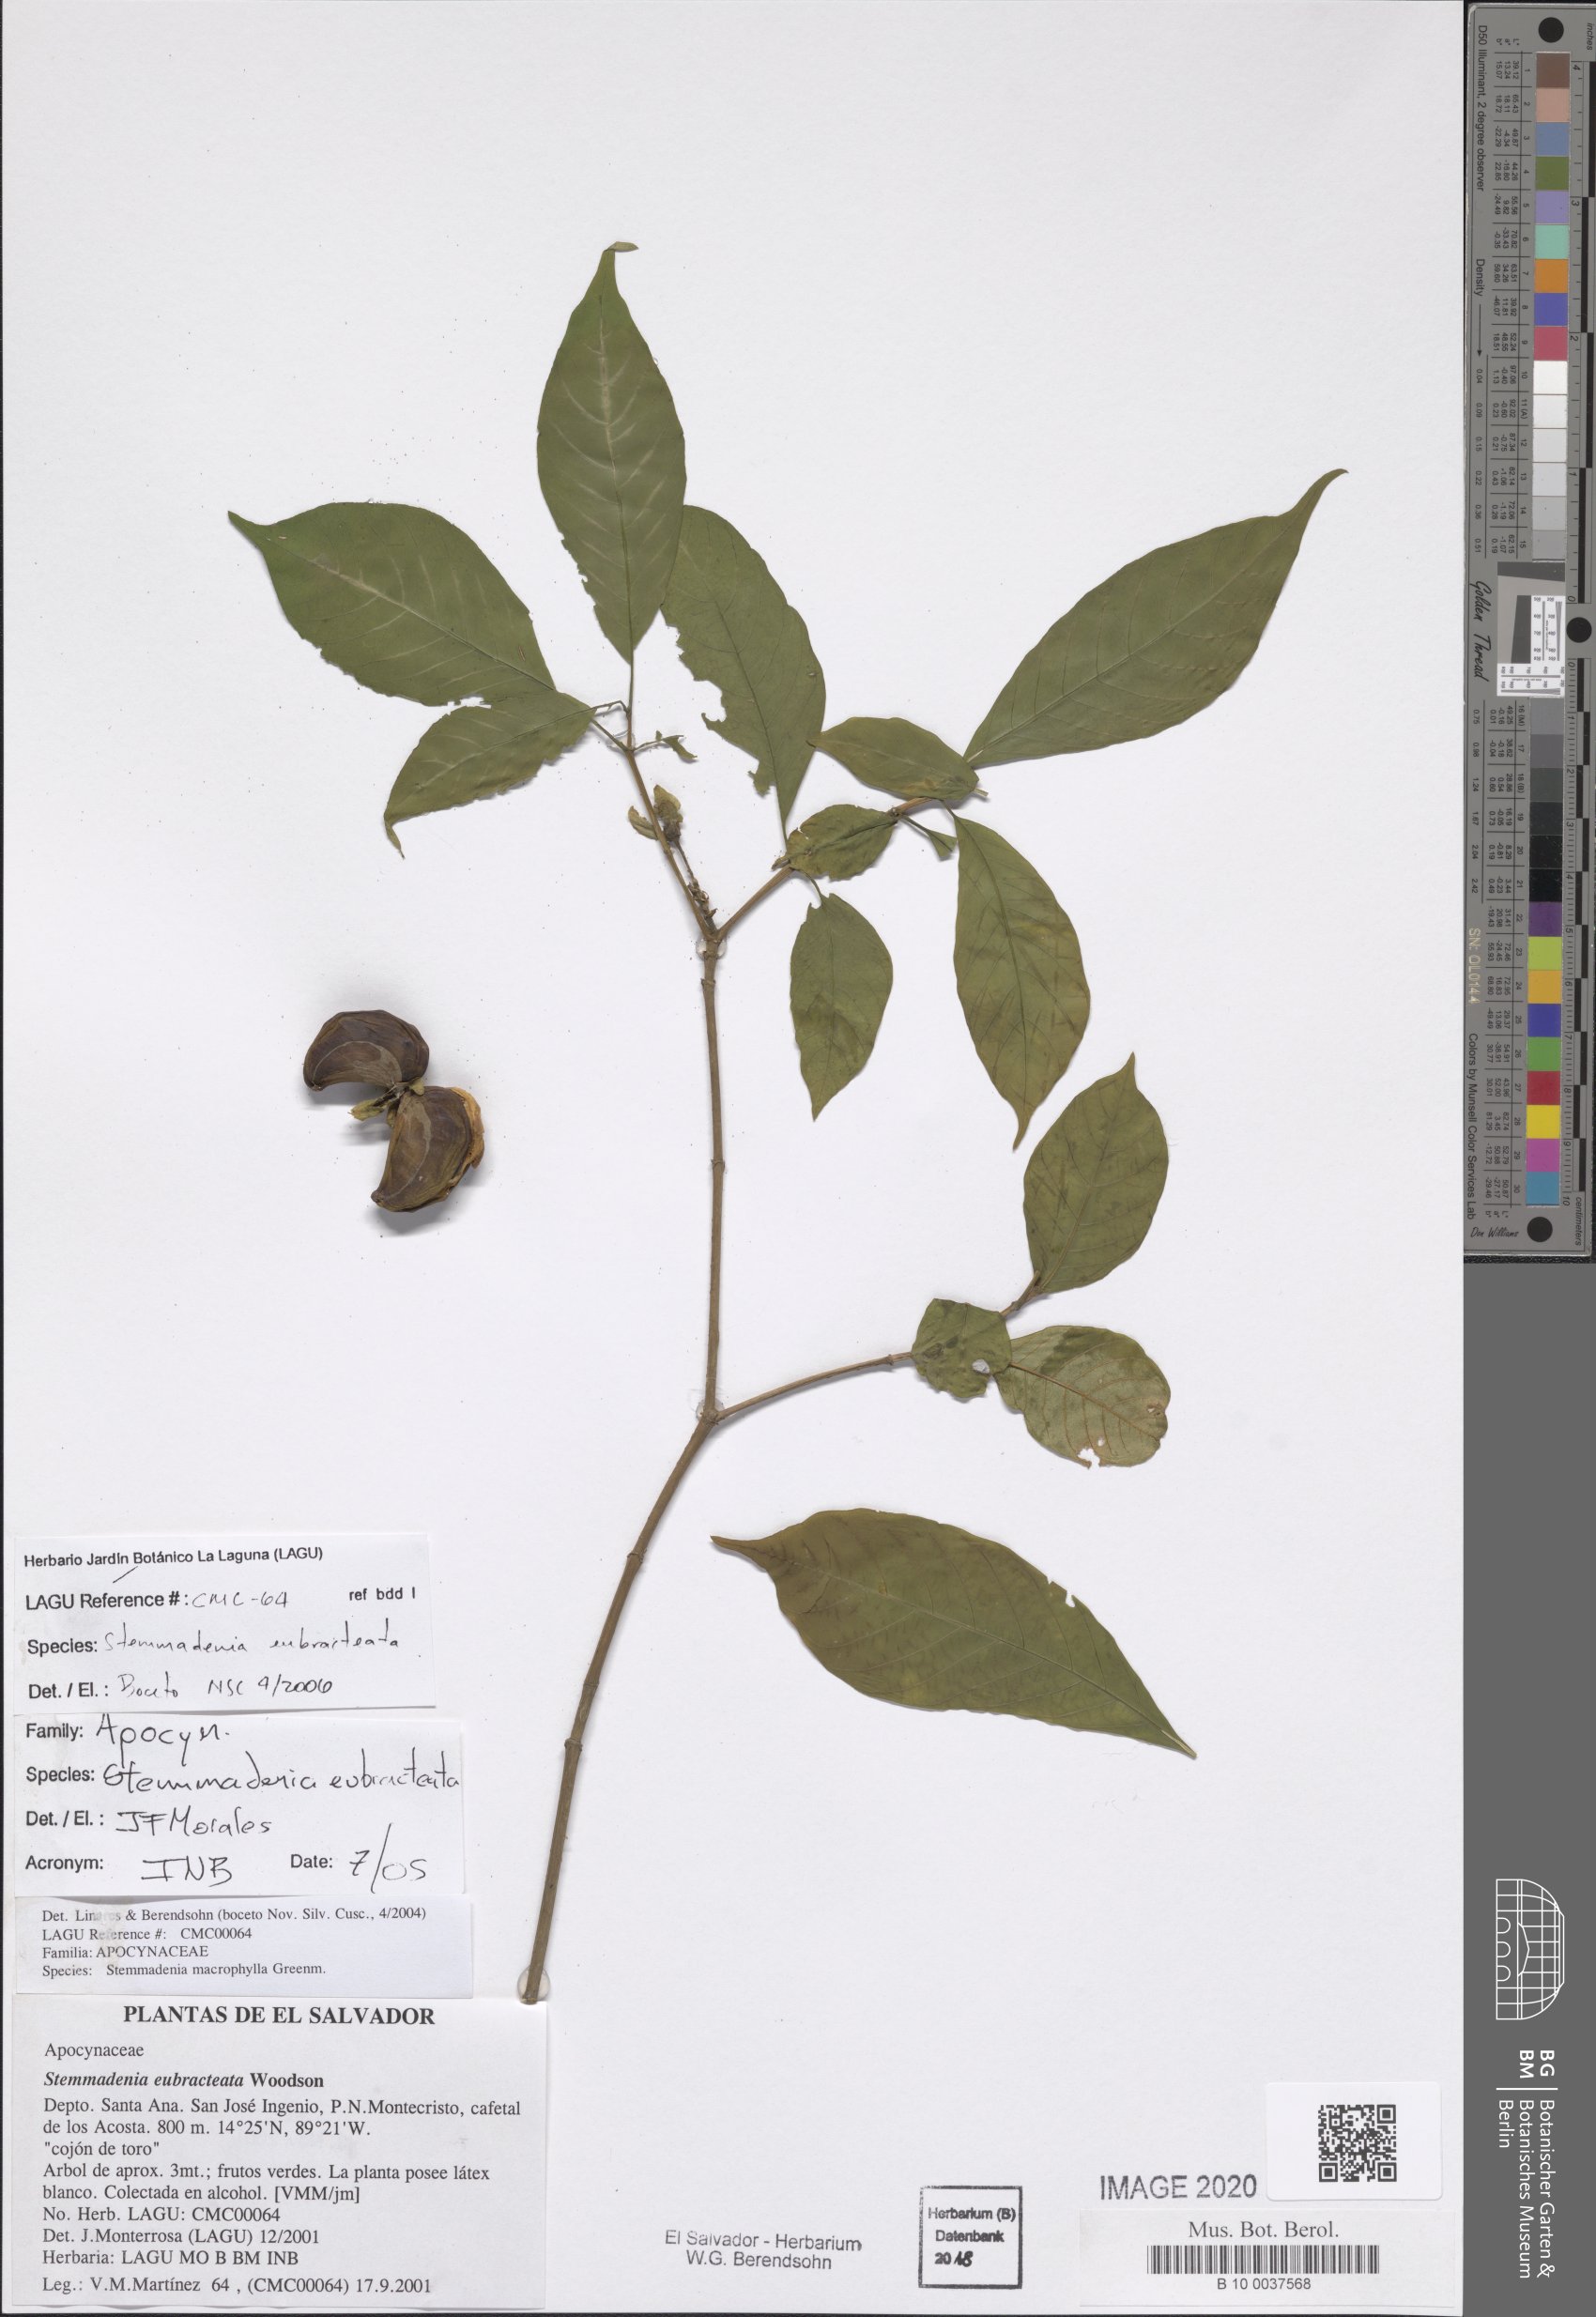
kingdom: Plantae
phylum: Tracheophyta
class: Magnoliopsida
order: Gentianales
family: Apocynaceae
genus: Tabernaemontana
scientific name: Tabernaemontana eubracteata
